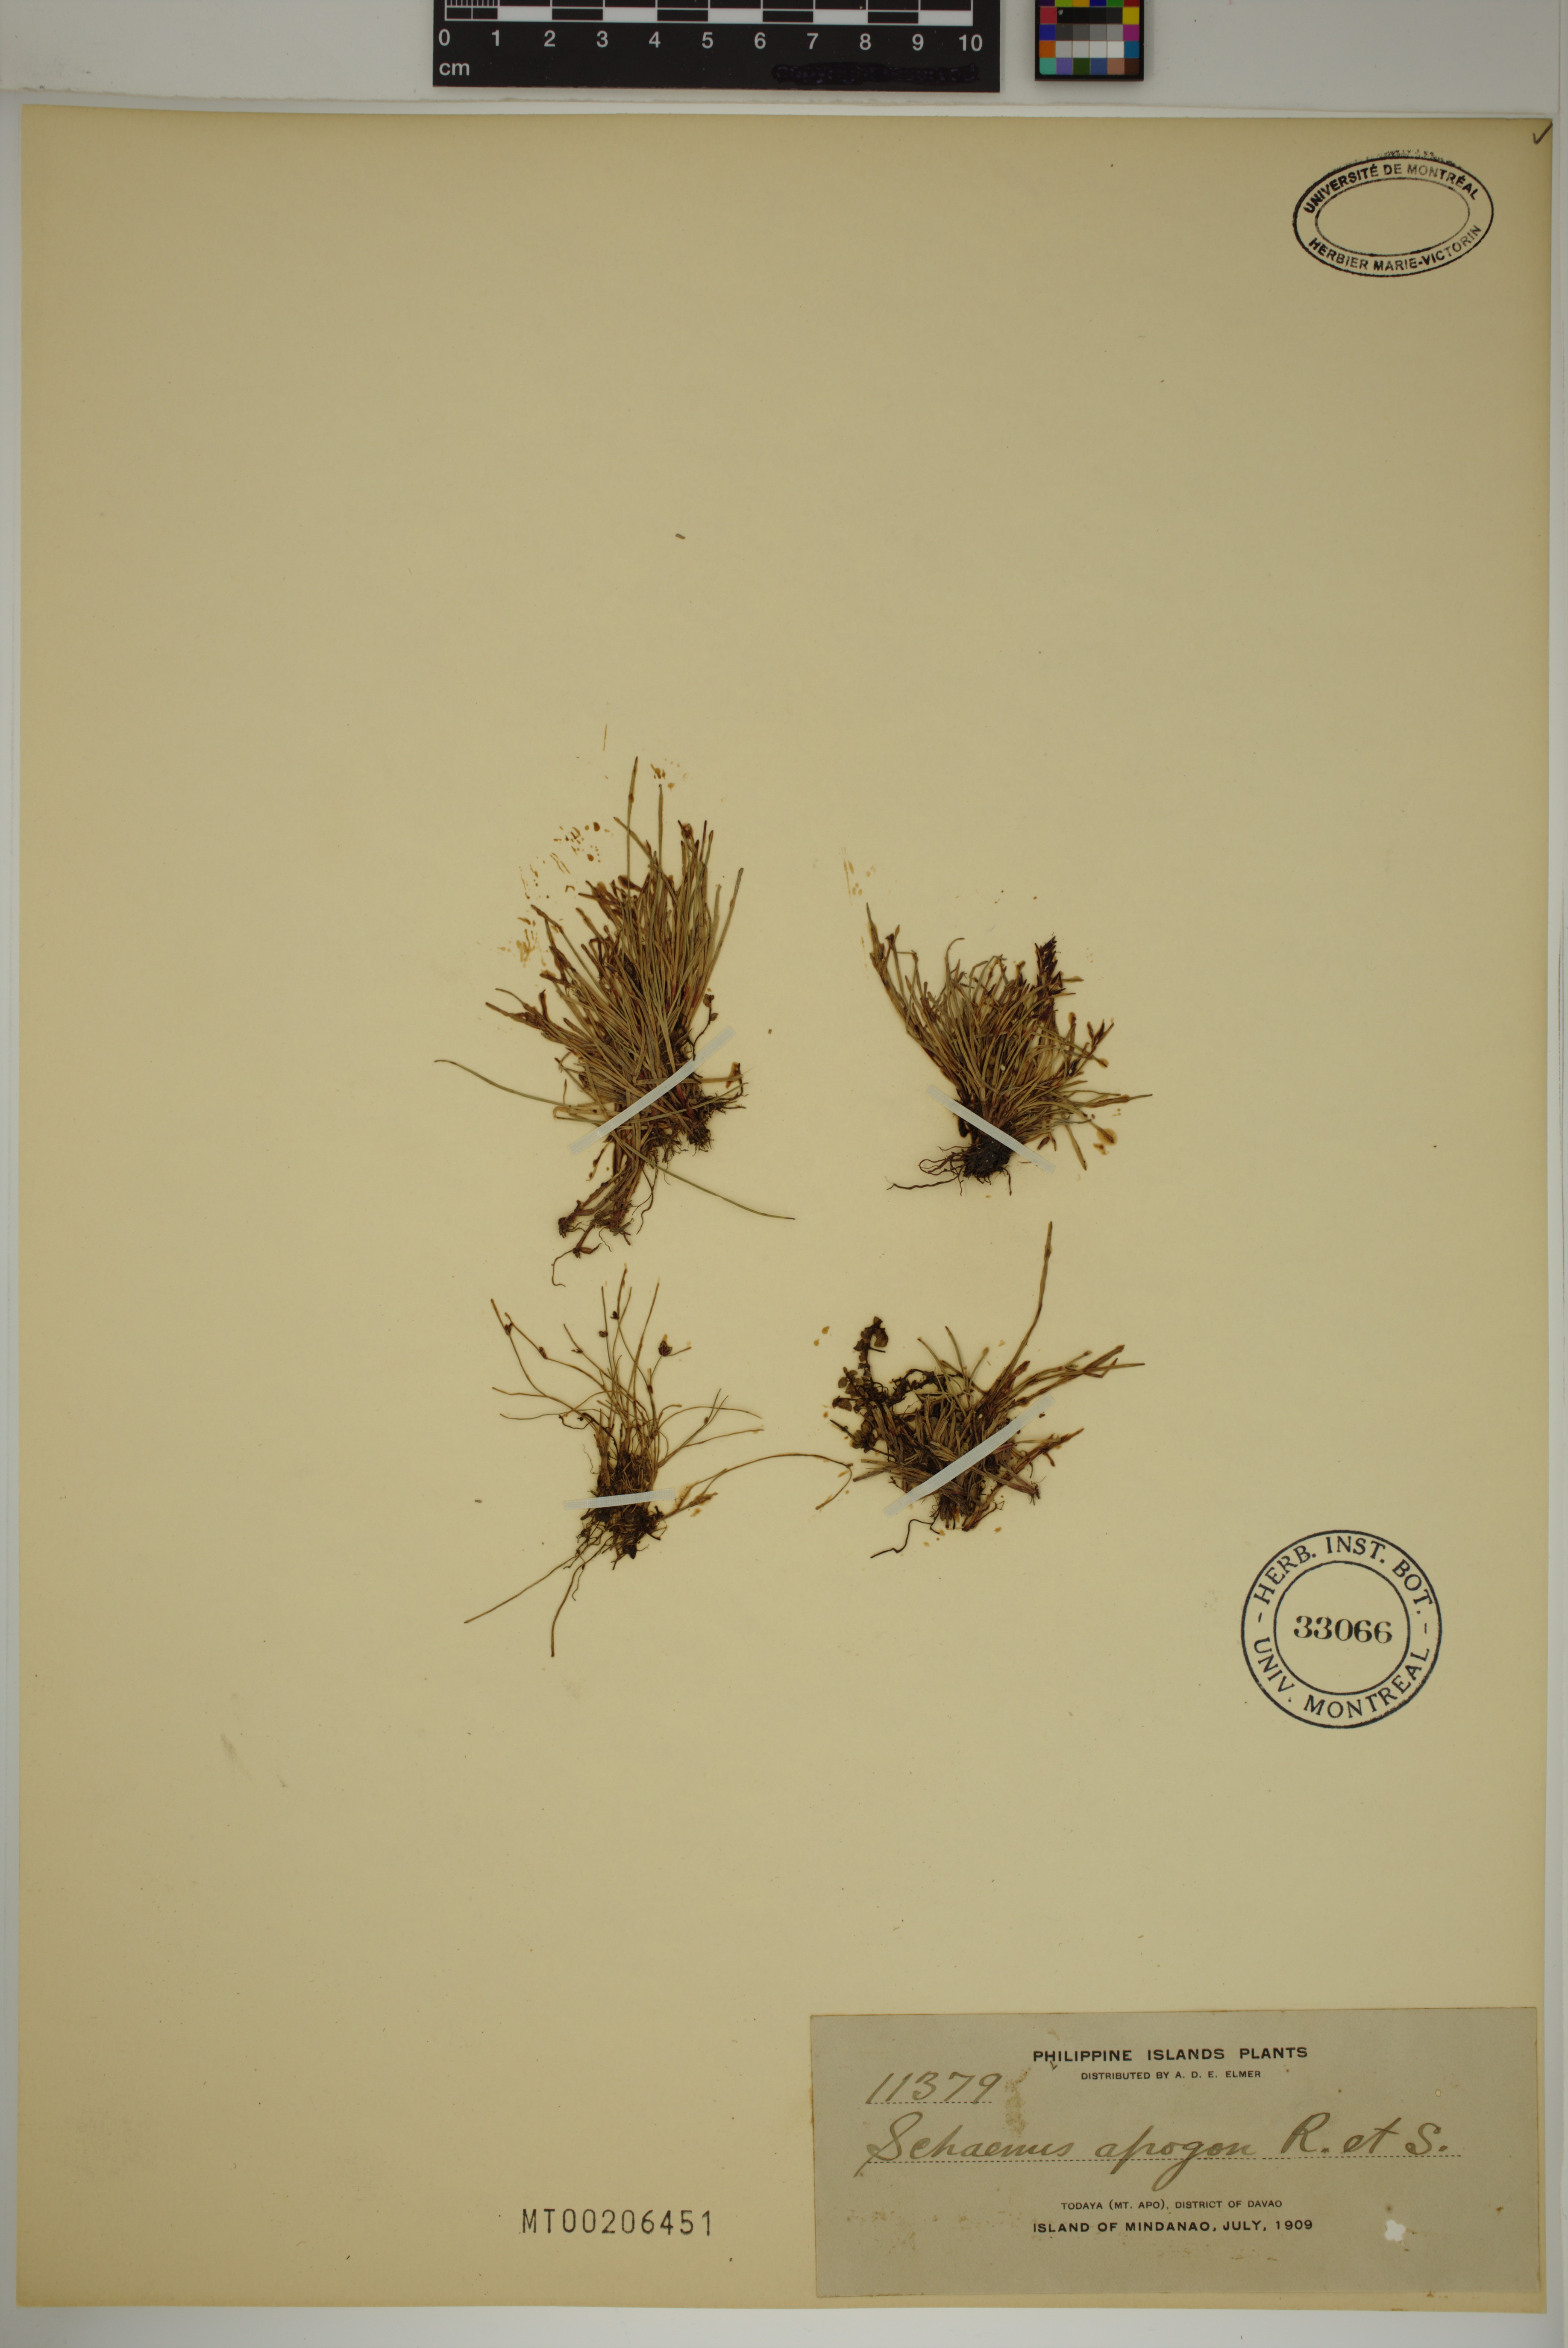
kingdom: Plantae
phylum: Tracheophyta
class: Liliopsida
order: Poales
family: Cyperaceae
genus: Schoenus
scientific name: Schoenus apogon
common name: Smooth bogrush
